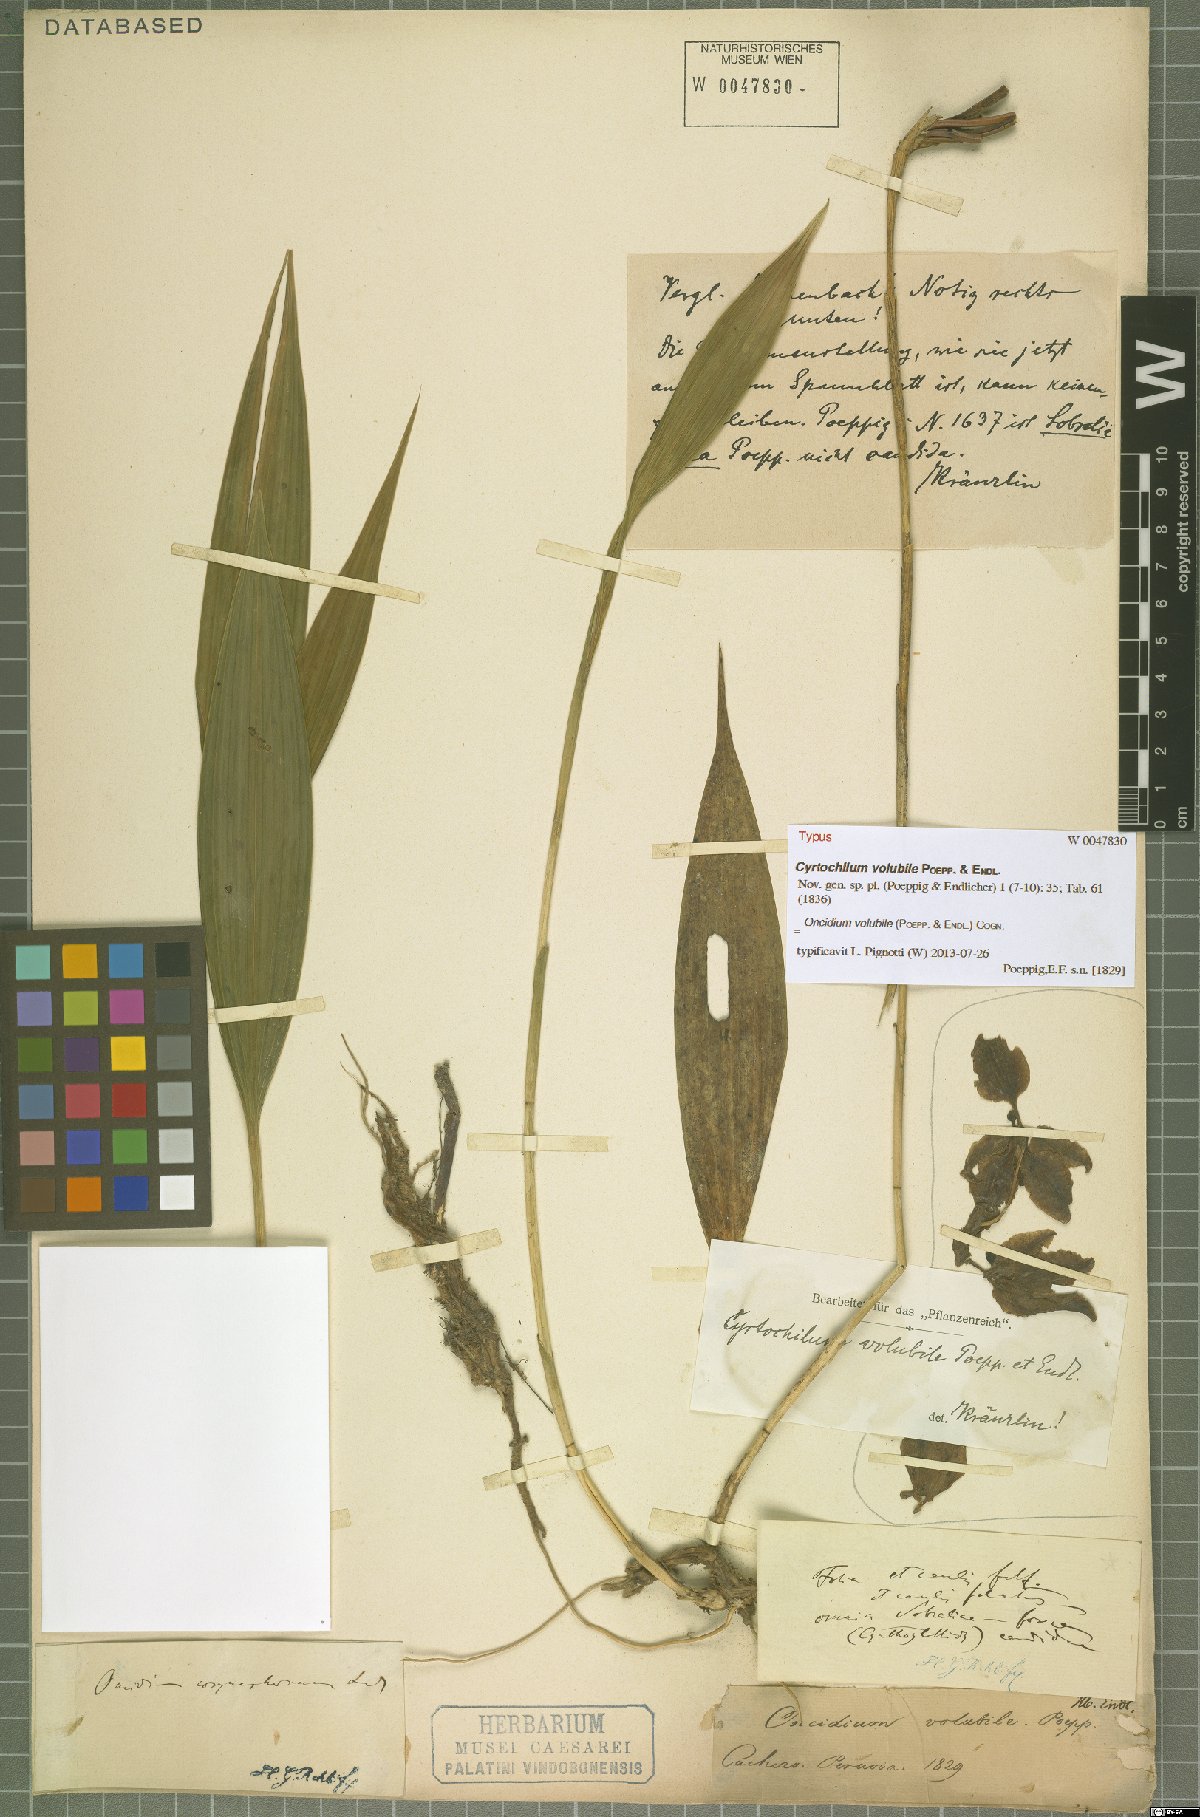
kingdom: Plantae
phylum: Tracheophyta
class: Liliopsida
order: Asparagales
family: Orchidaceae
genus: Cyrtochilum
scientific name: Cyrtochilum volubile
